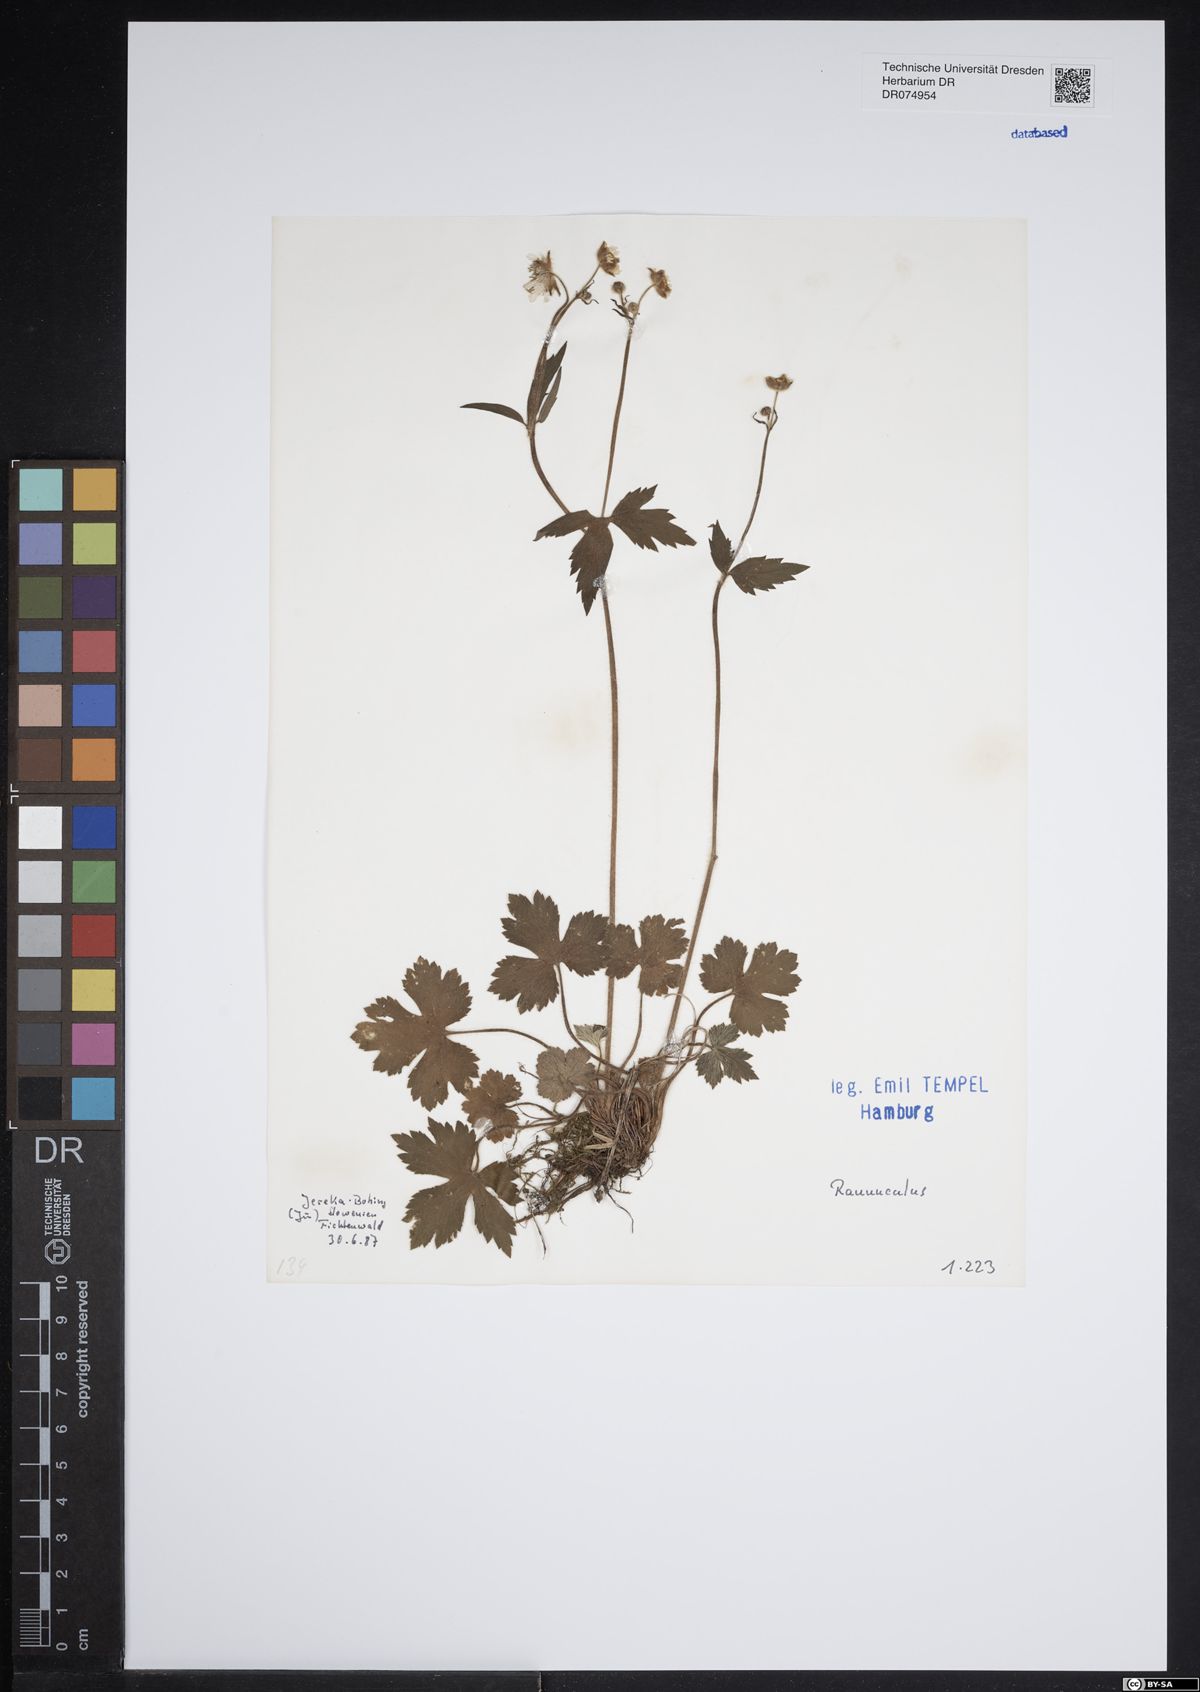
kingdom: Plantae
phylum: Tracheophyta
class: Magnoliopsida
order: Ranunculales
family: Ranunculaceae
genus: Ranunculus
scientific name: Ranunculus
